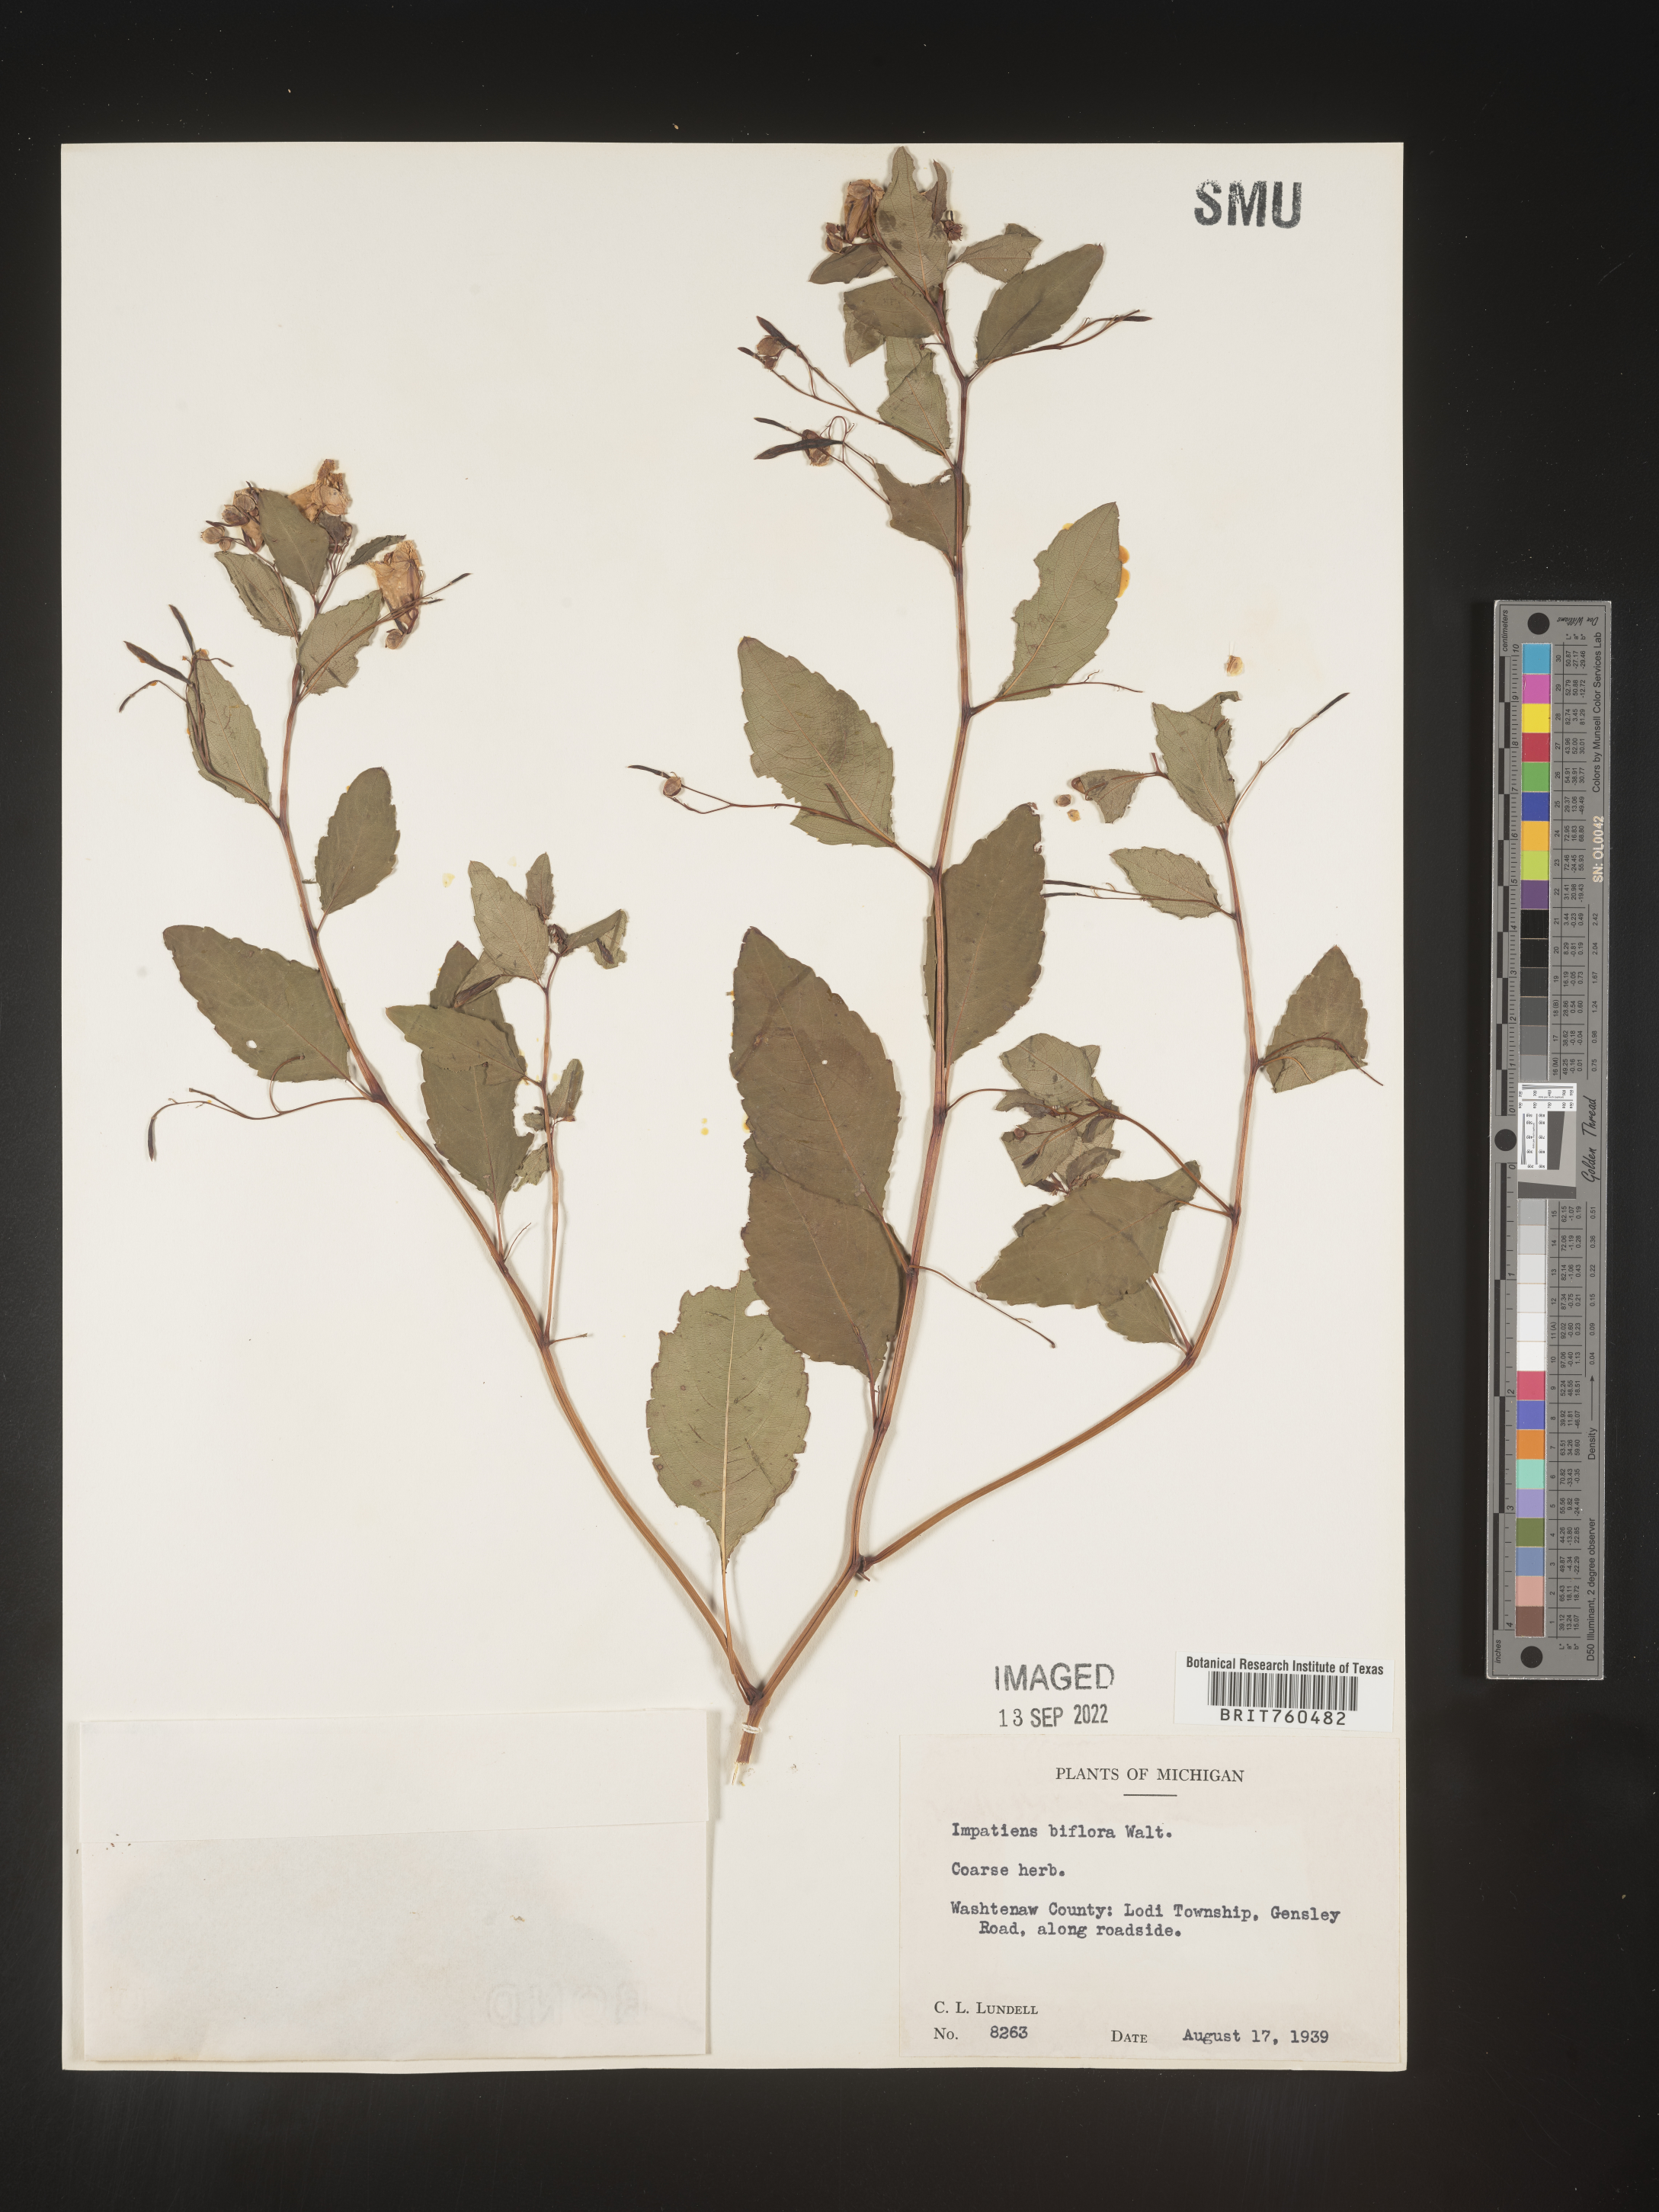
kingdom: Plantae
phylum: Tracheophyta
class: Magnoliopsida
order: Ericales
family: Balsaminaceae
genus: Impatiens
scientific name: Impatiens capensis
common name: Orange balsam
